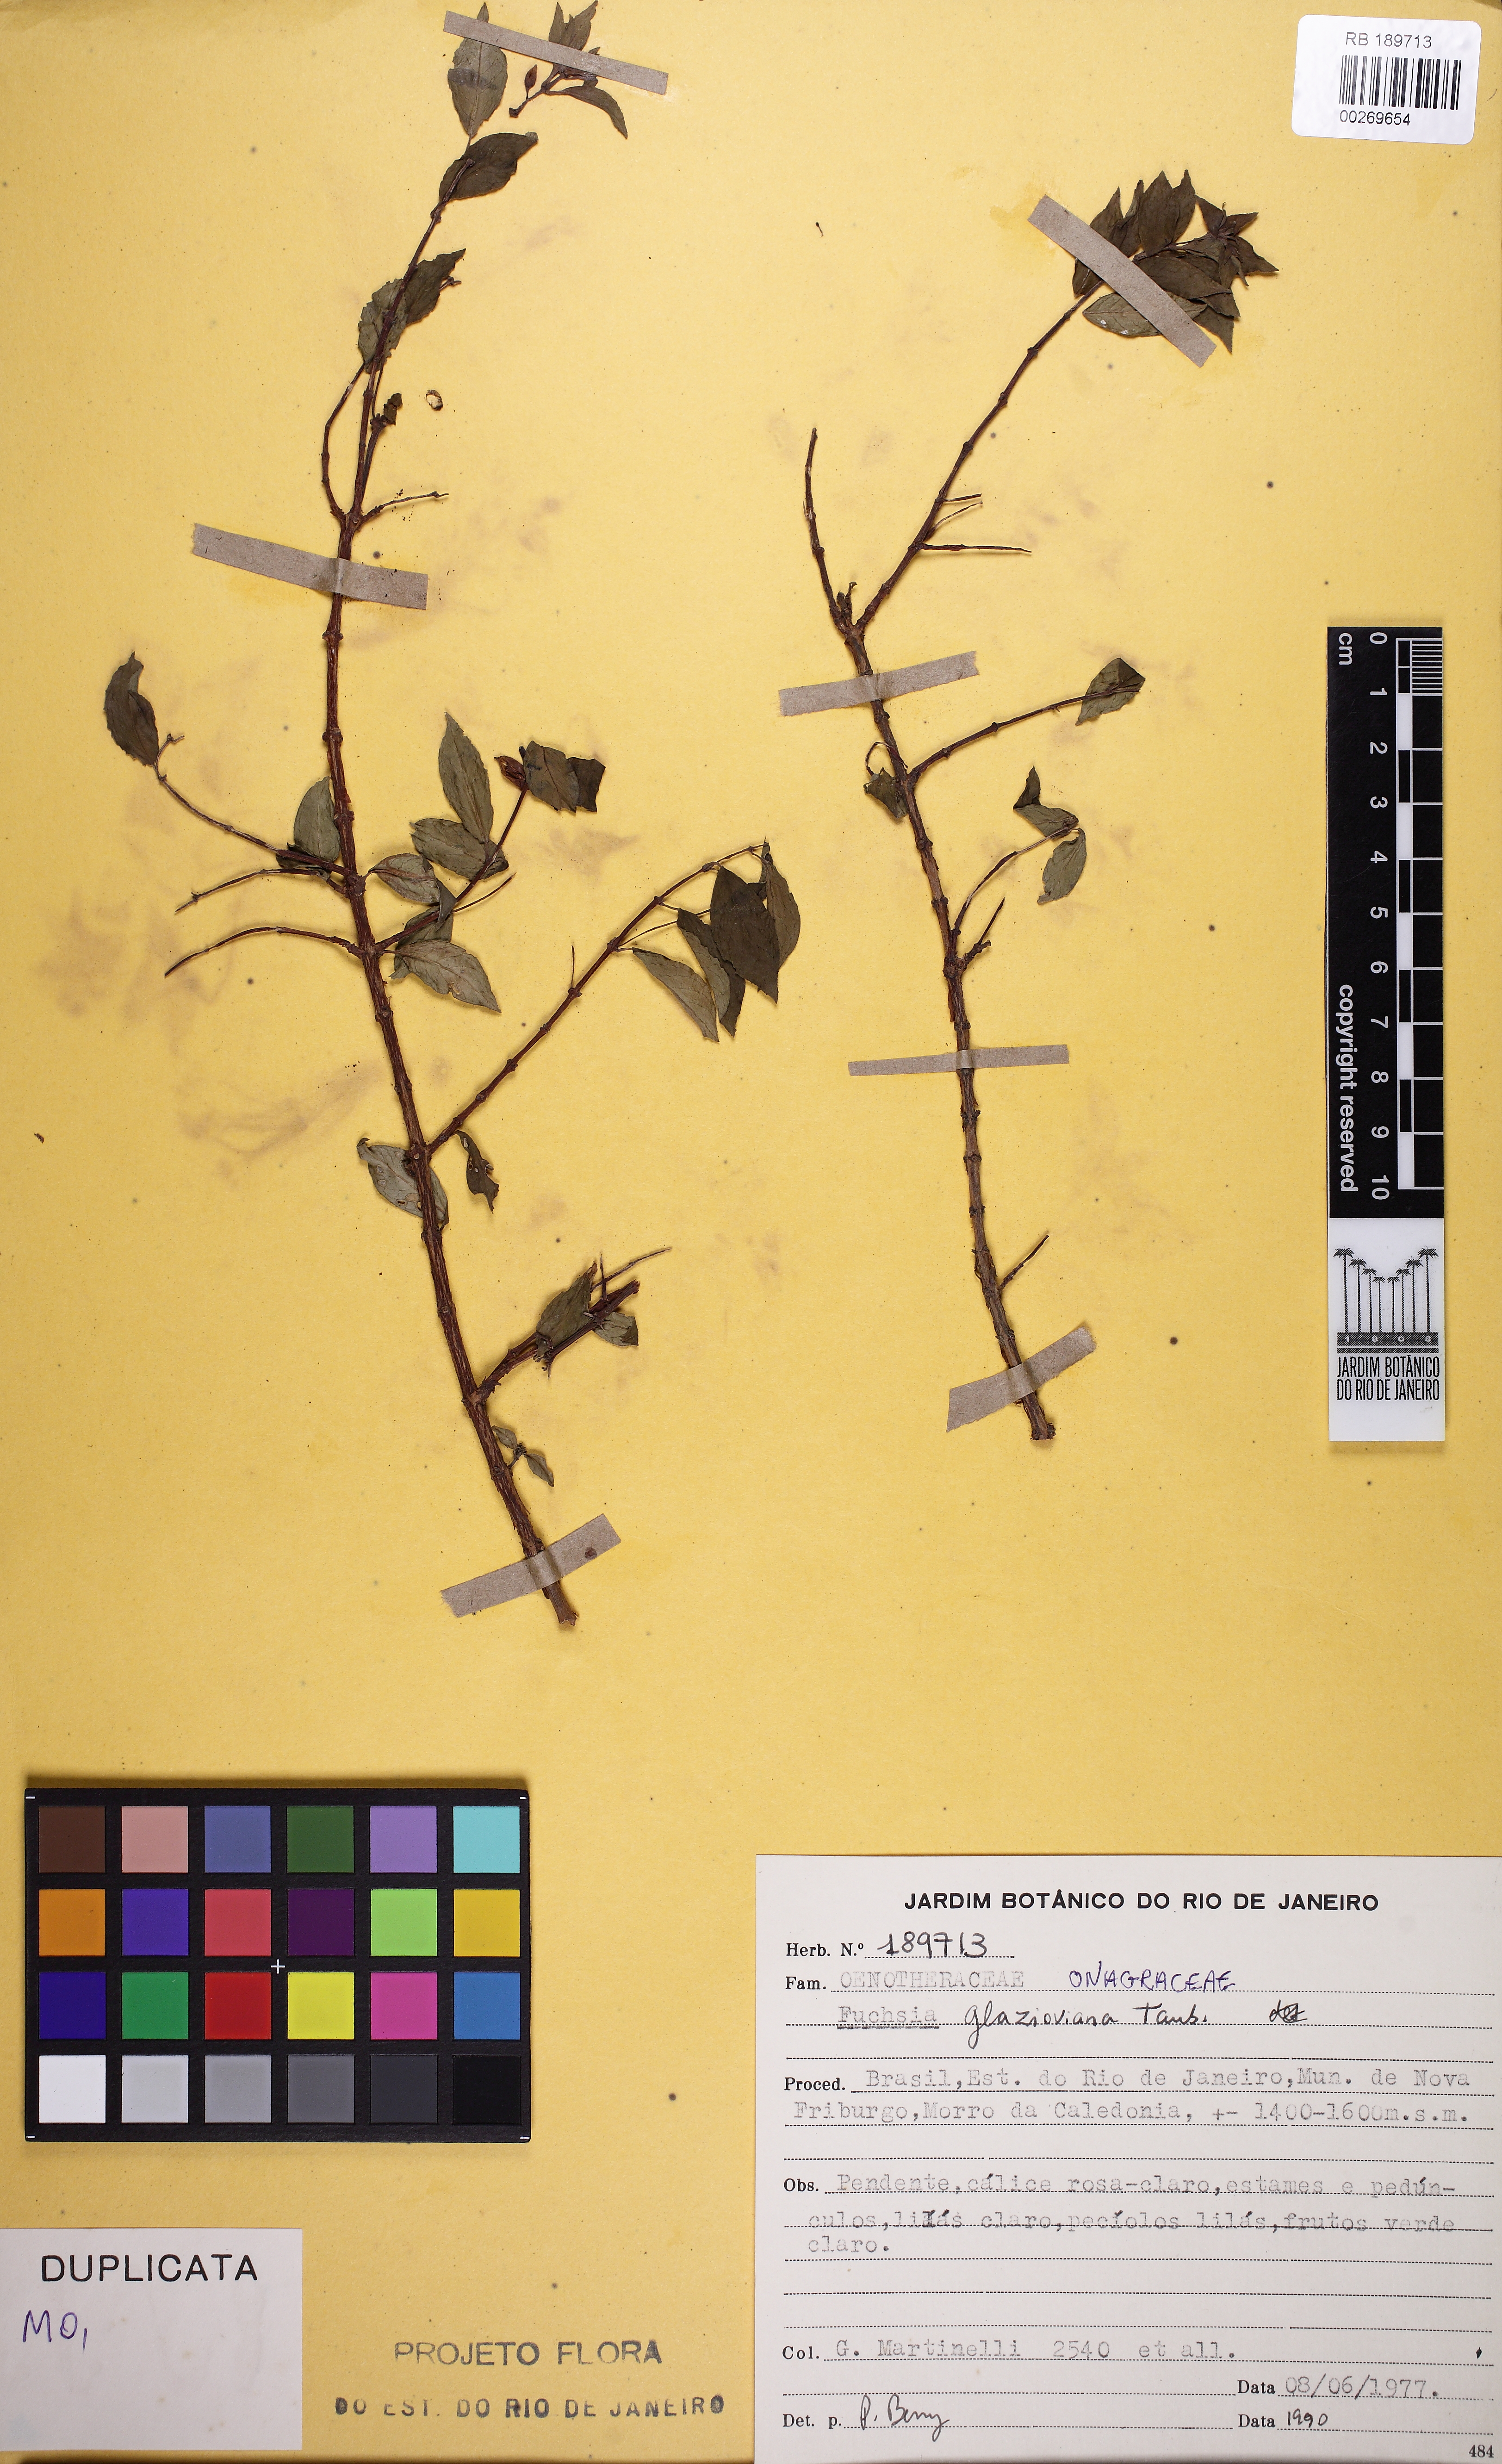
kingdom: Plantae
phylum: Tracheophyta
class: Magnoliopsida
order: Myrtales
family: Onagraceae
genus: Fuchsia
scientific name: Fuchsia glazioviana
